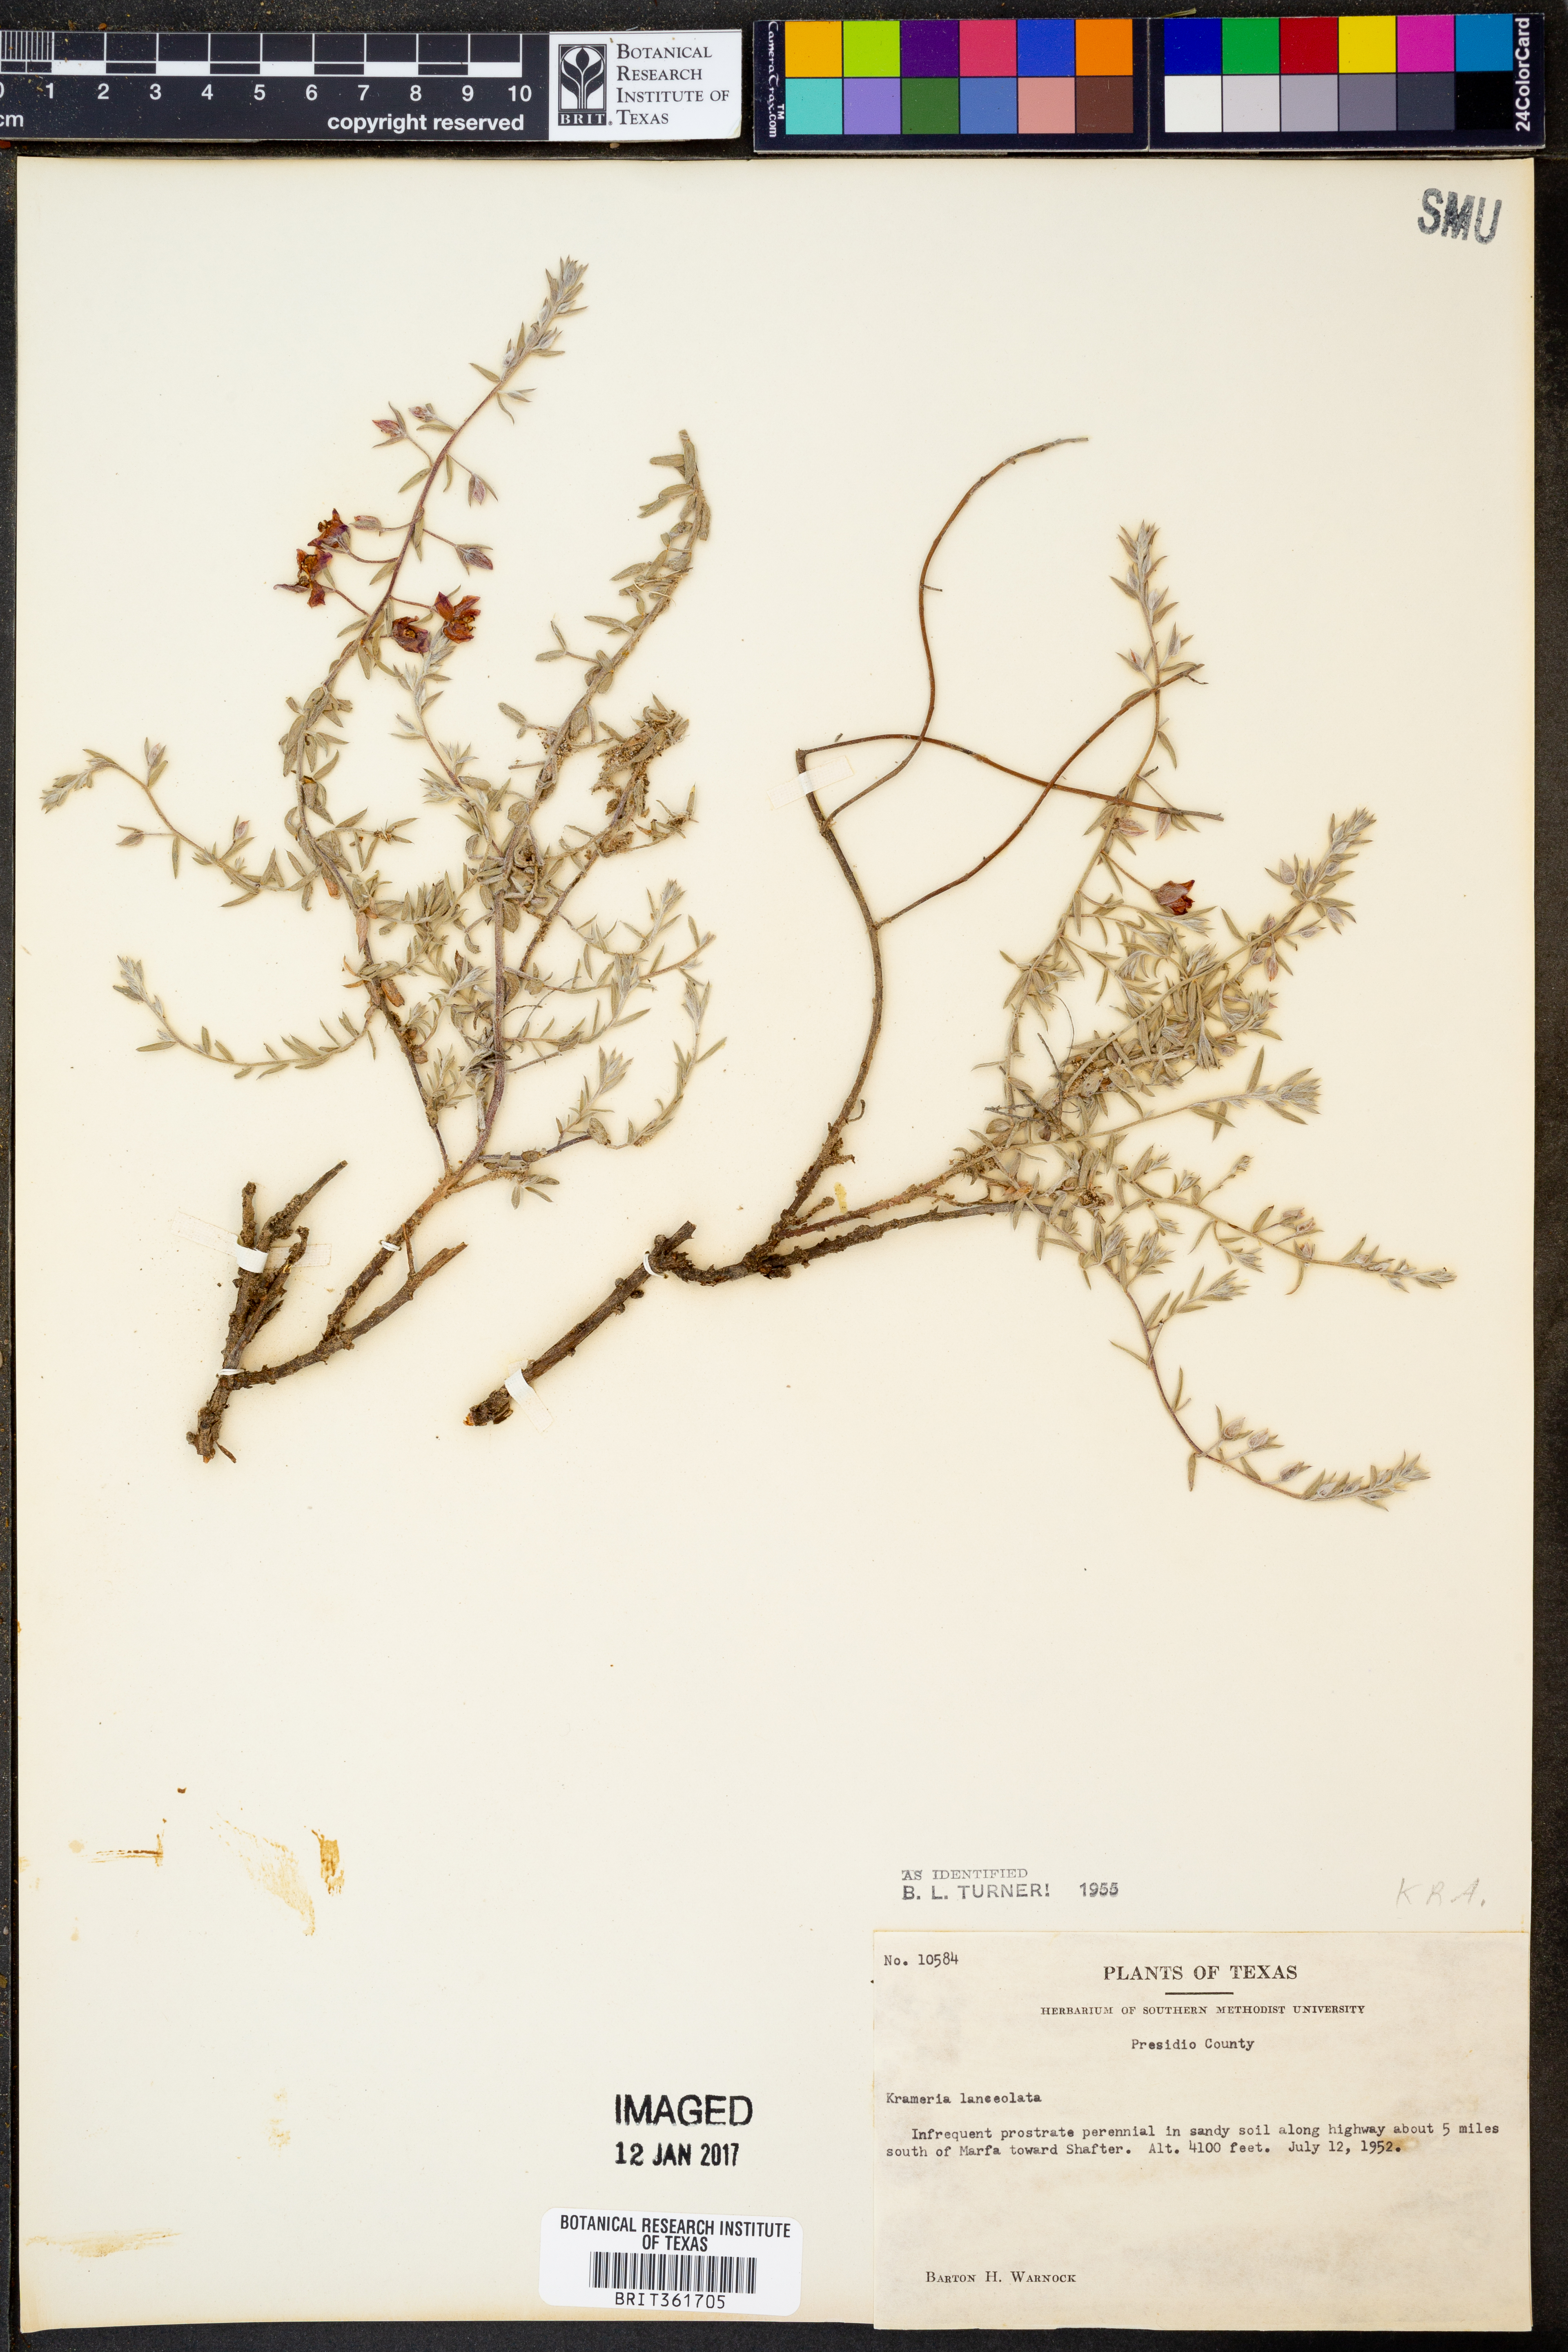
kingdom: Plantae
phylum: Tracheophyta
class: Magnoliopsida
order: Zygophyllales
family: Krameriaceae
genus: Krameria
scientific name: Krameria lanceolata
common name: Ratany
